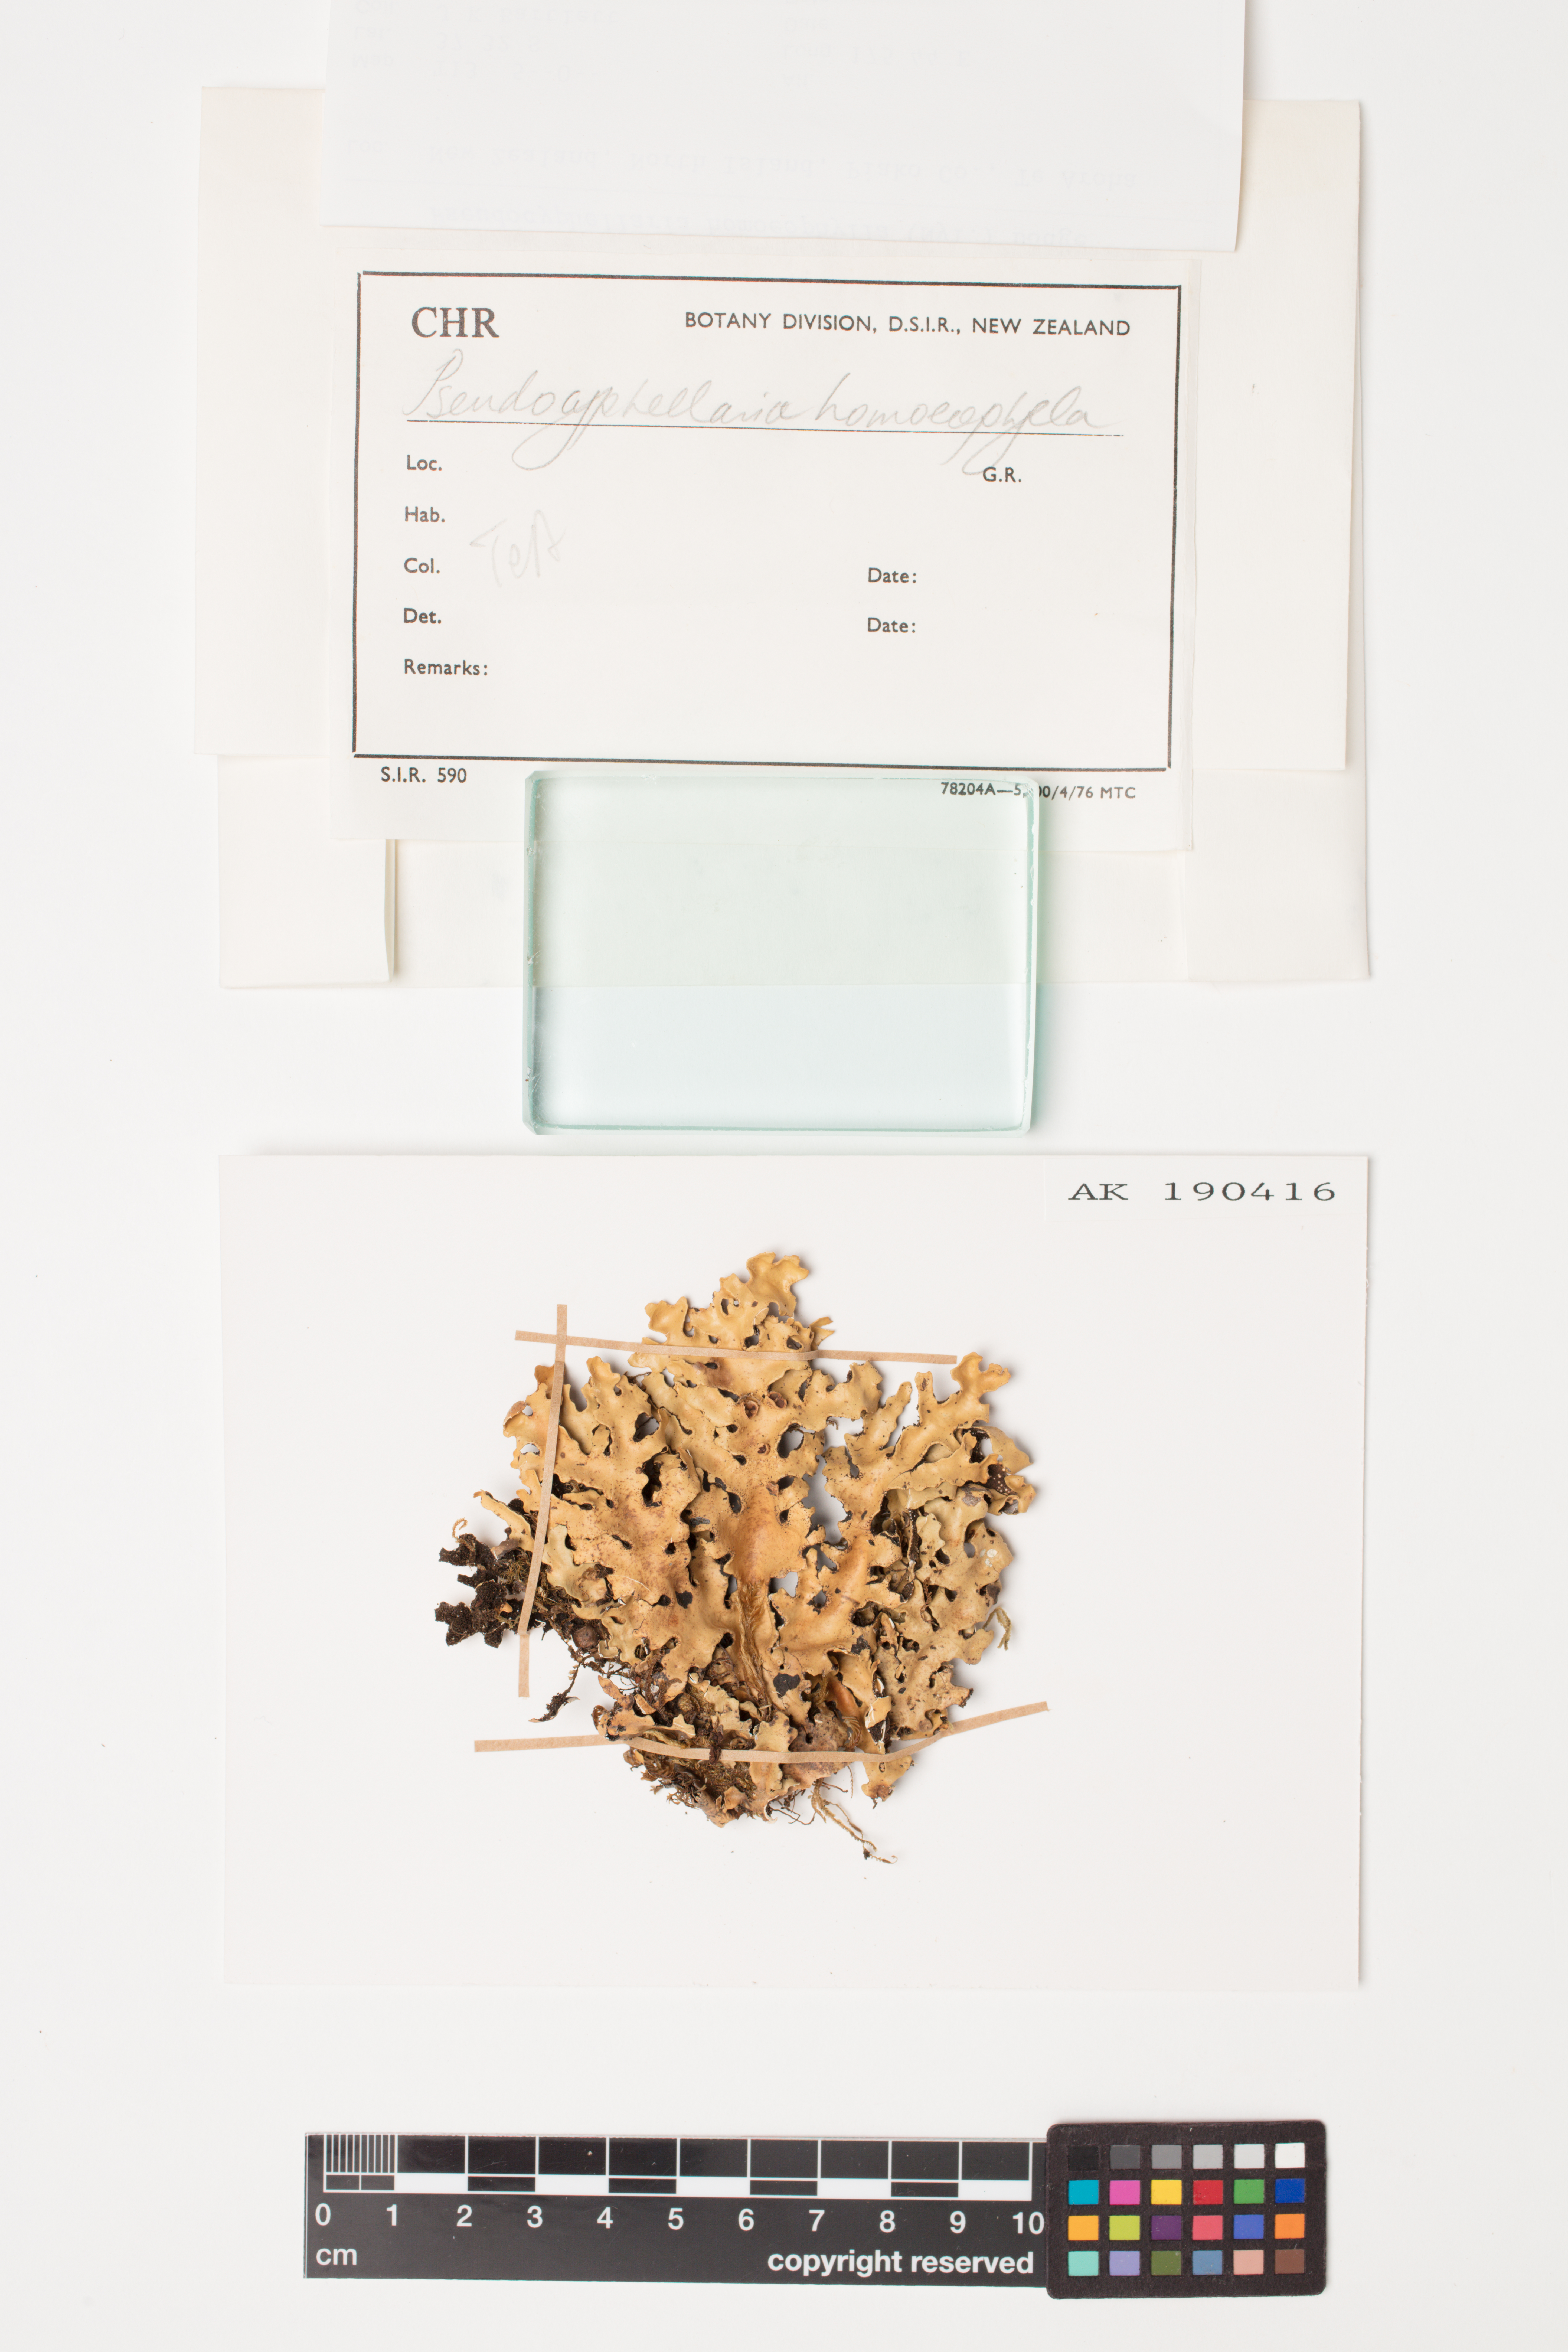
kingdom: Fungi
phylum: Ascomycota
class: Lecanoromycetes
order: Peltigerales
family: Lobariaceae
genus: Pseudocyphellaria
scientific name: Pseudocyphellaria homeophylla
